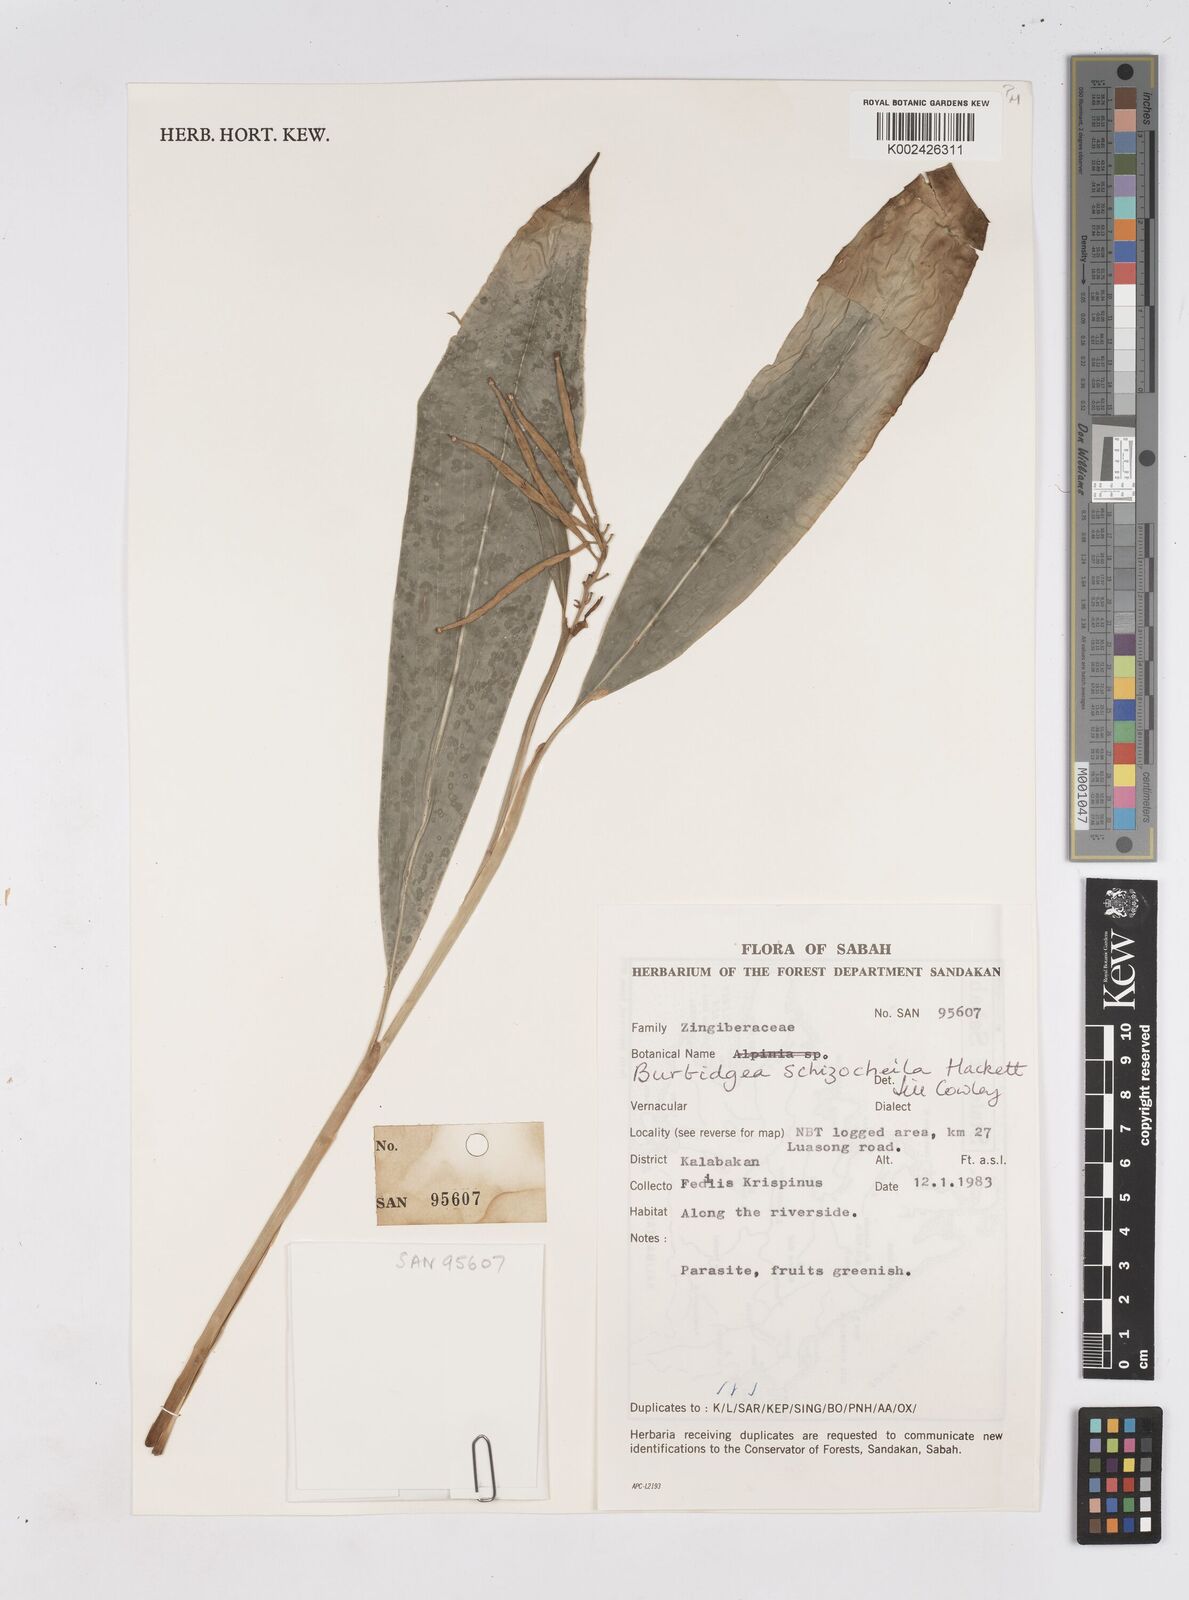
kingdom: Plantae
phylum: Tracheophyta
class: Liliopsida
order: Zingiberales
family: Zingiberaceae
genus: Burbidgea
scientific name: Burbidgea schizocheila
